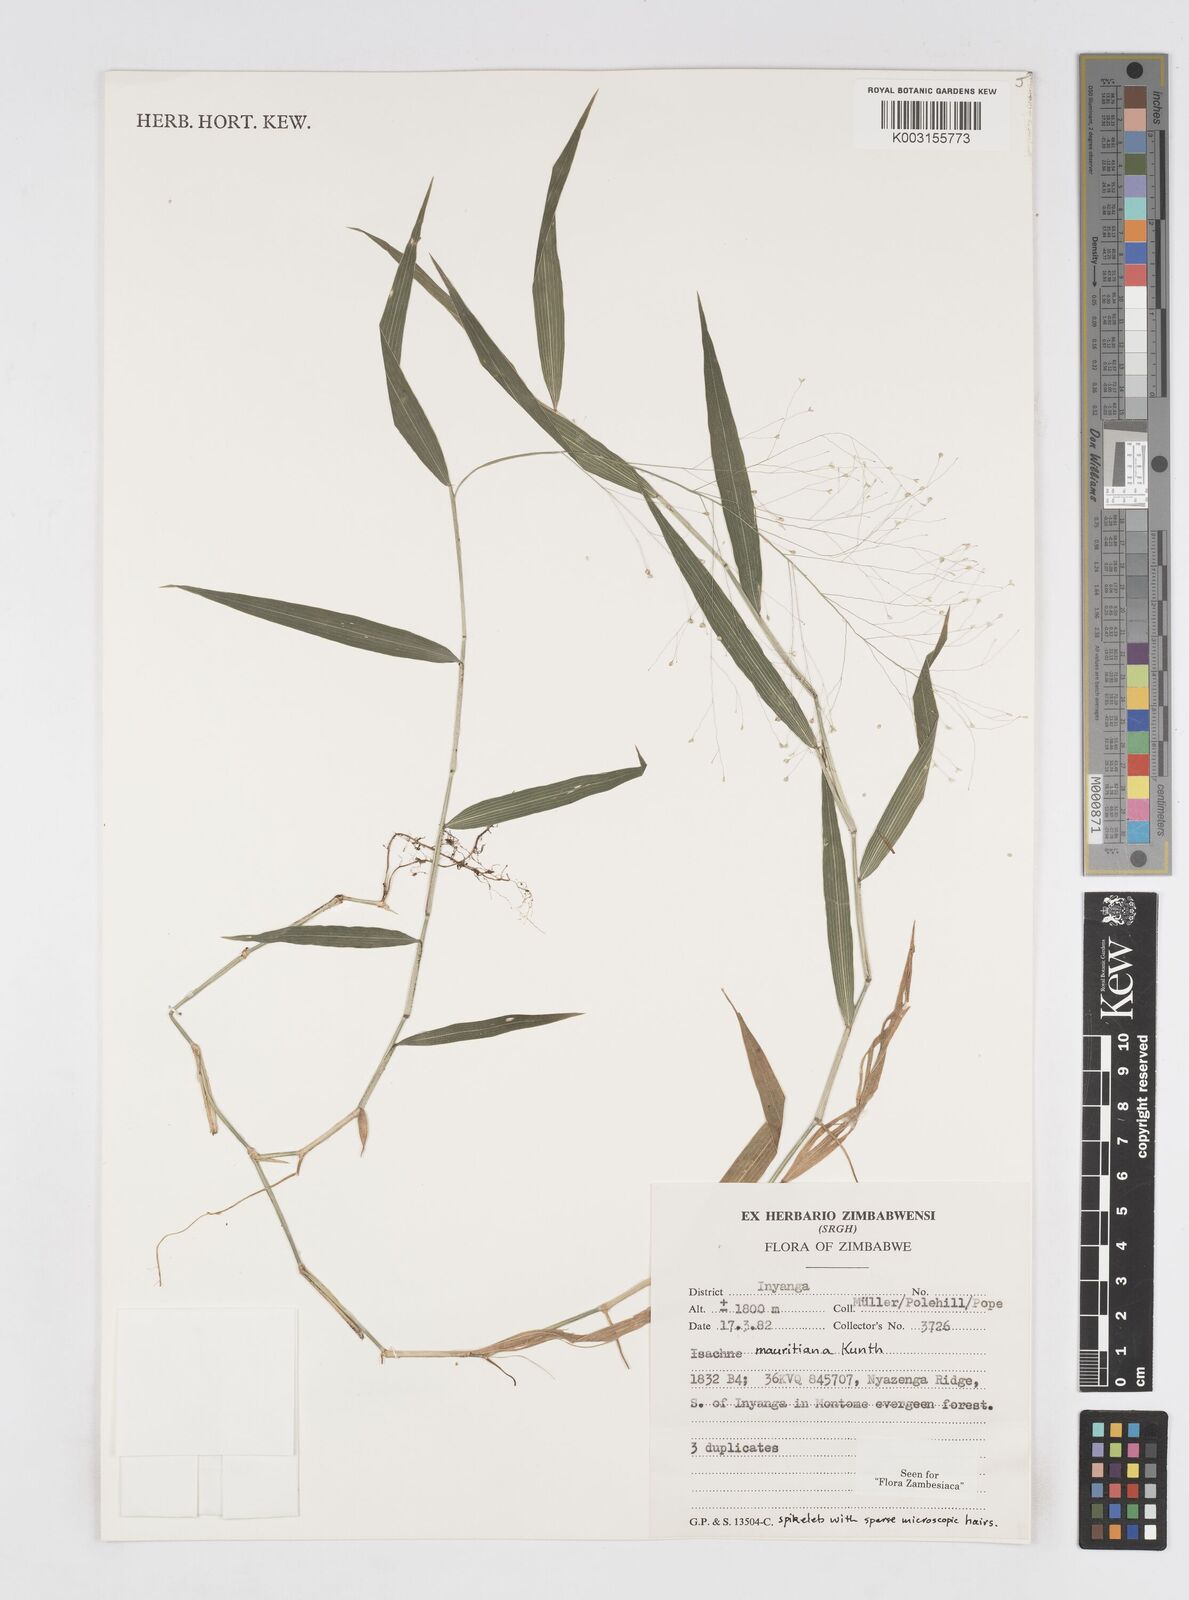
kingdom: Plantae
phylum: Tracheophyta
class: Liliopsida
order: Poales
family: Poaceae
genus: Isachne
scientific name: Isachne mauritiana
